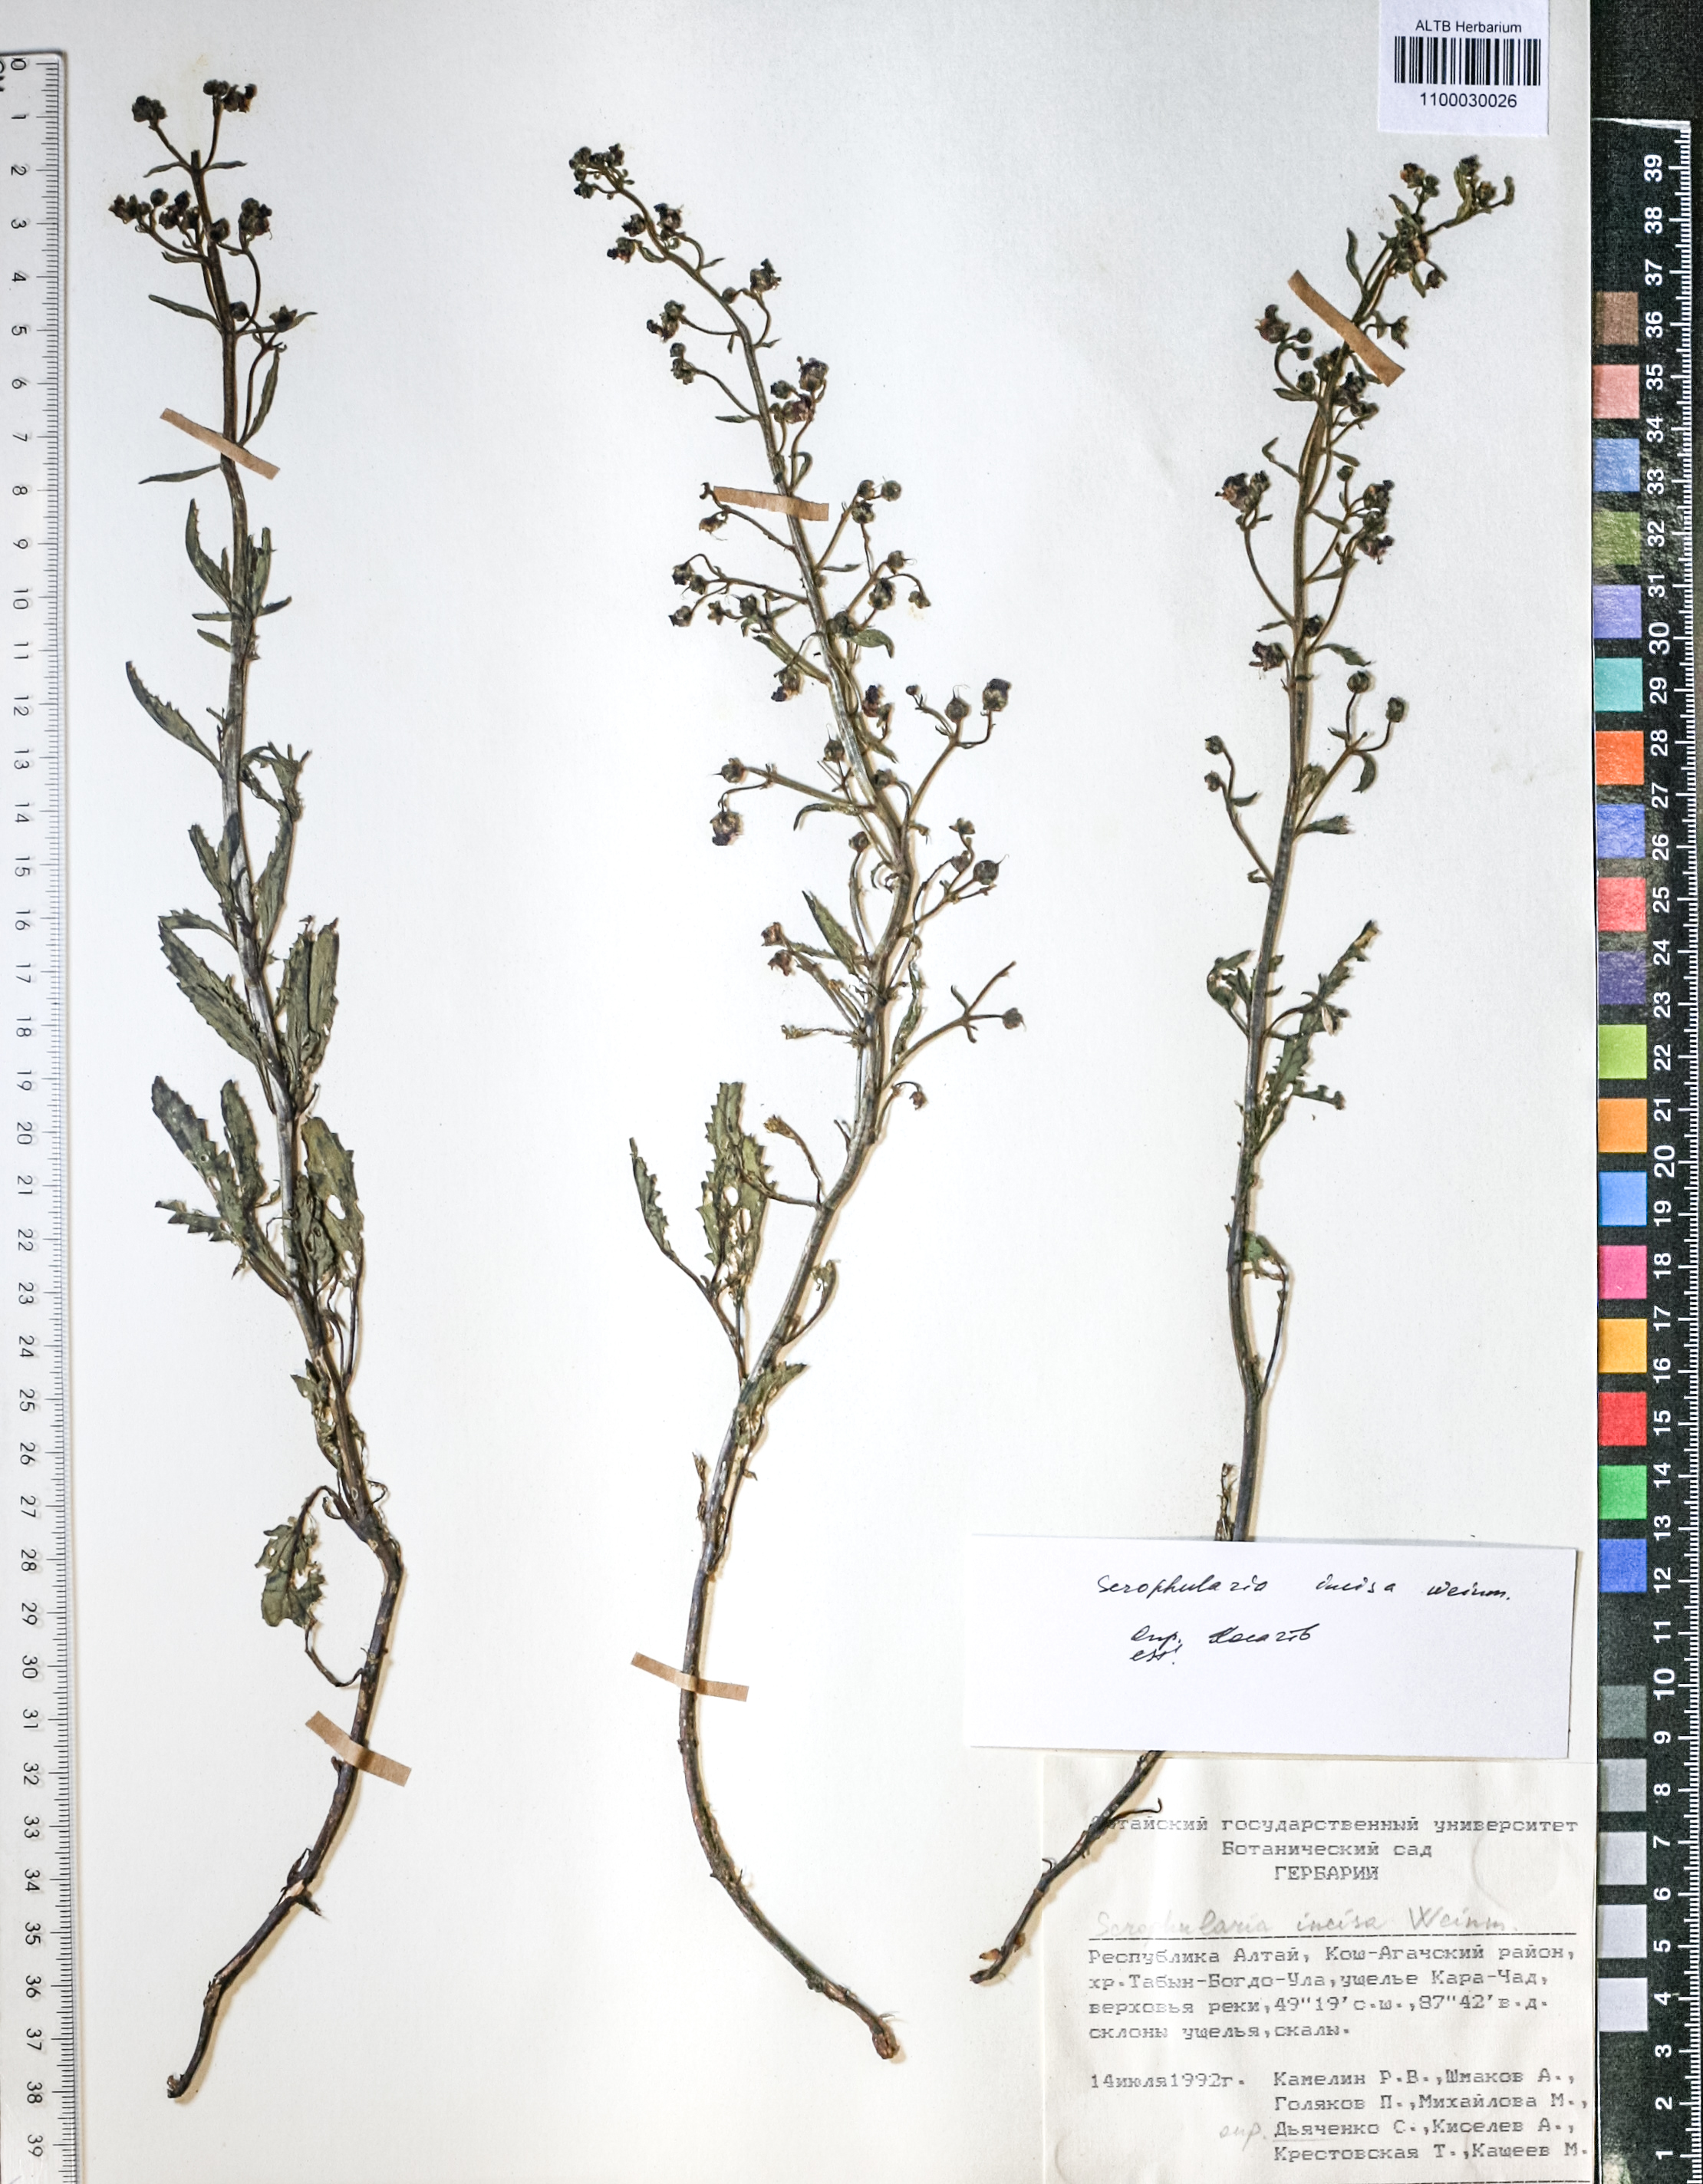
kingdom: Plantae
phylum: Tracheophyta
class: Magnoliopsida
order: Lamiales
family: Scrophulariaceae
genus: Scrophularia
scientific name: Scrophularia incisa
